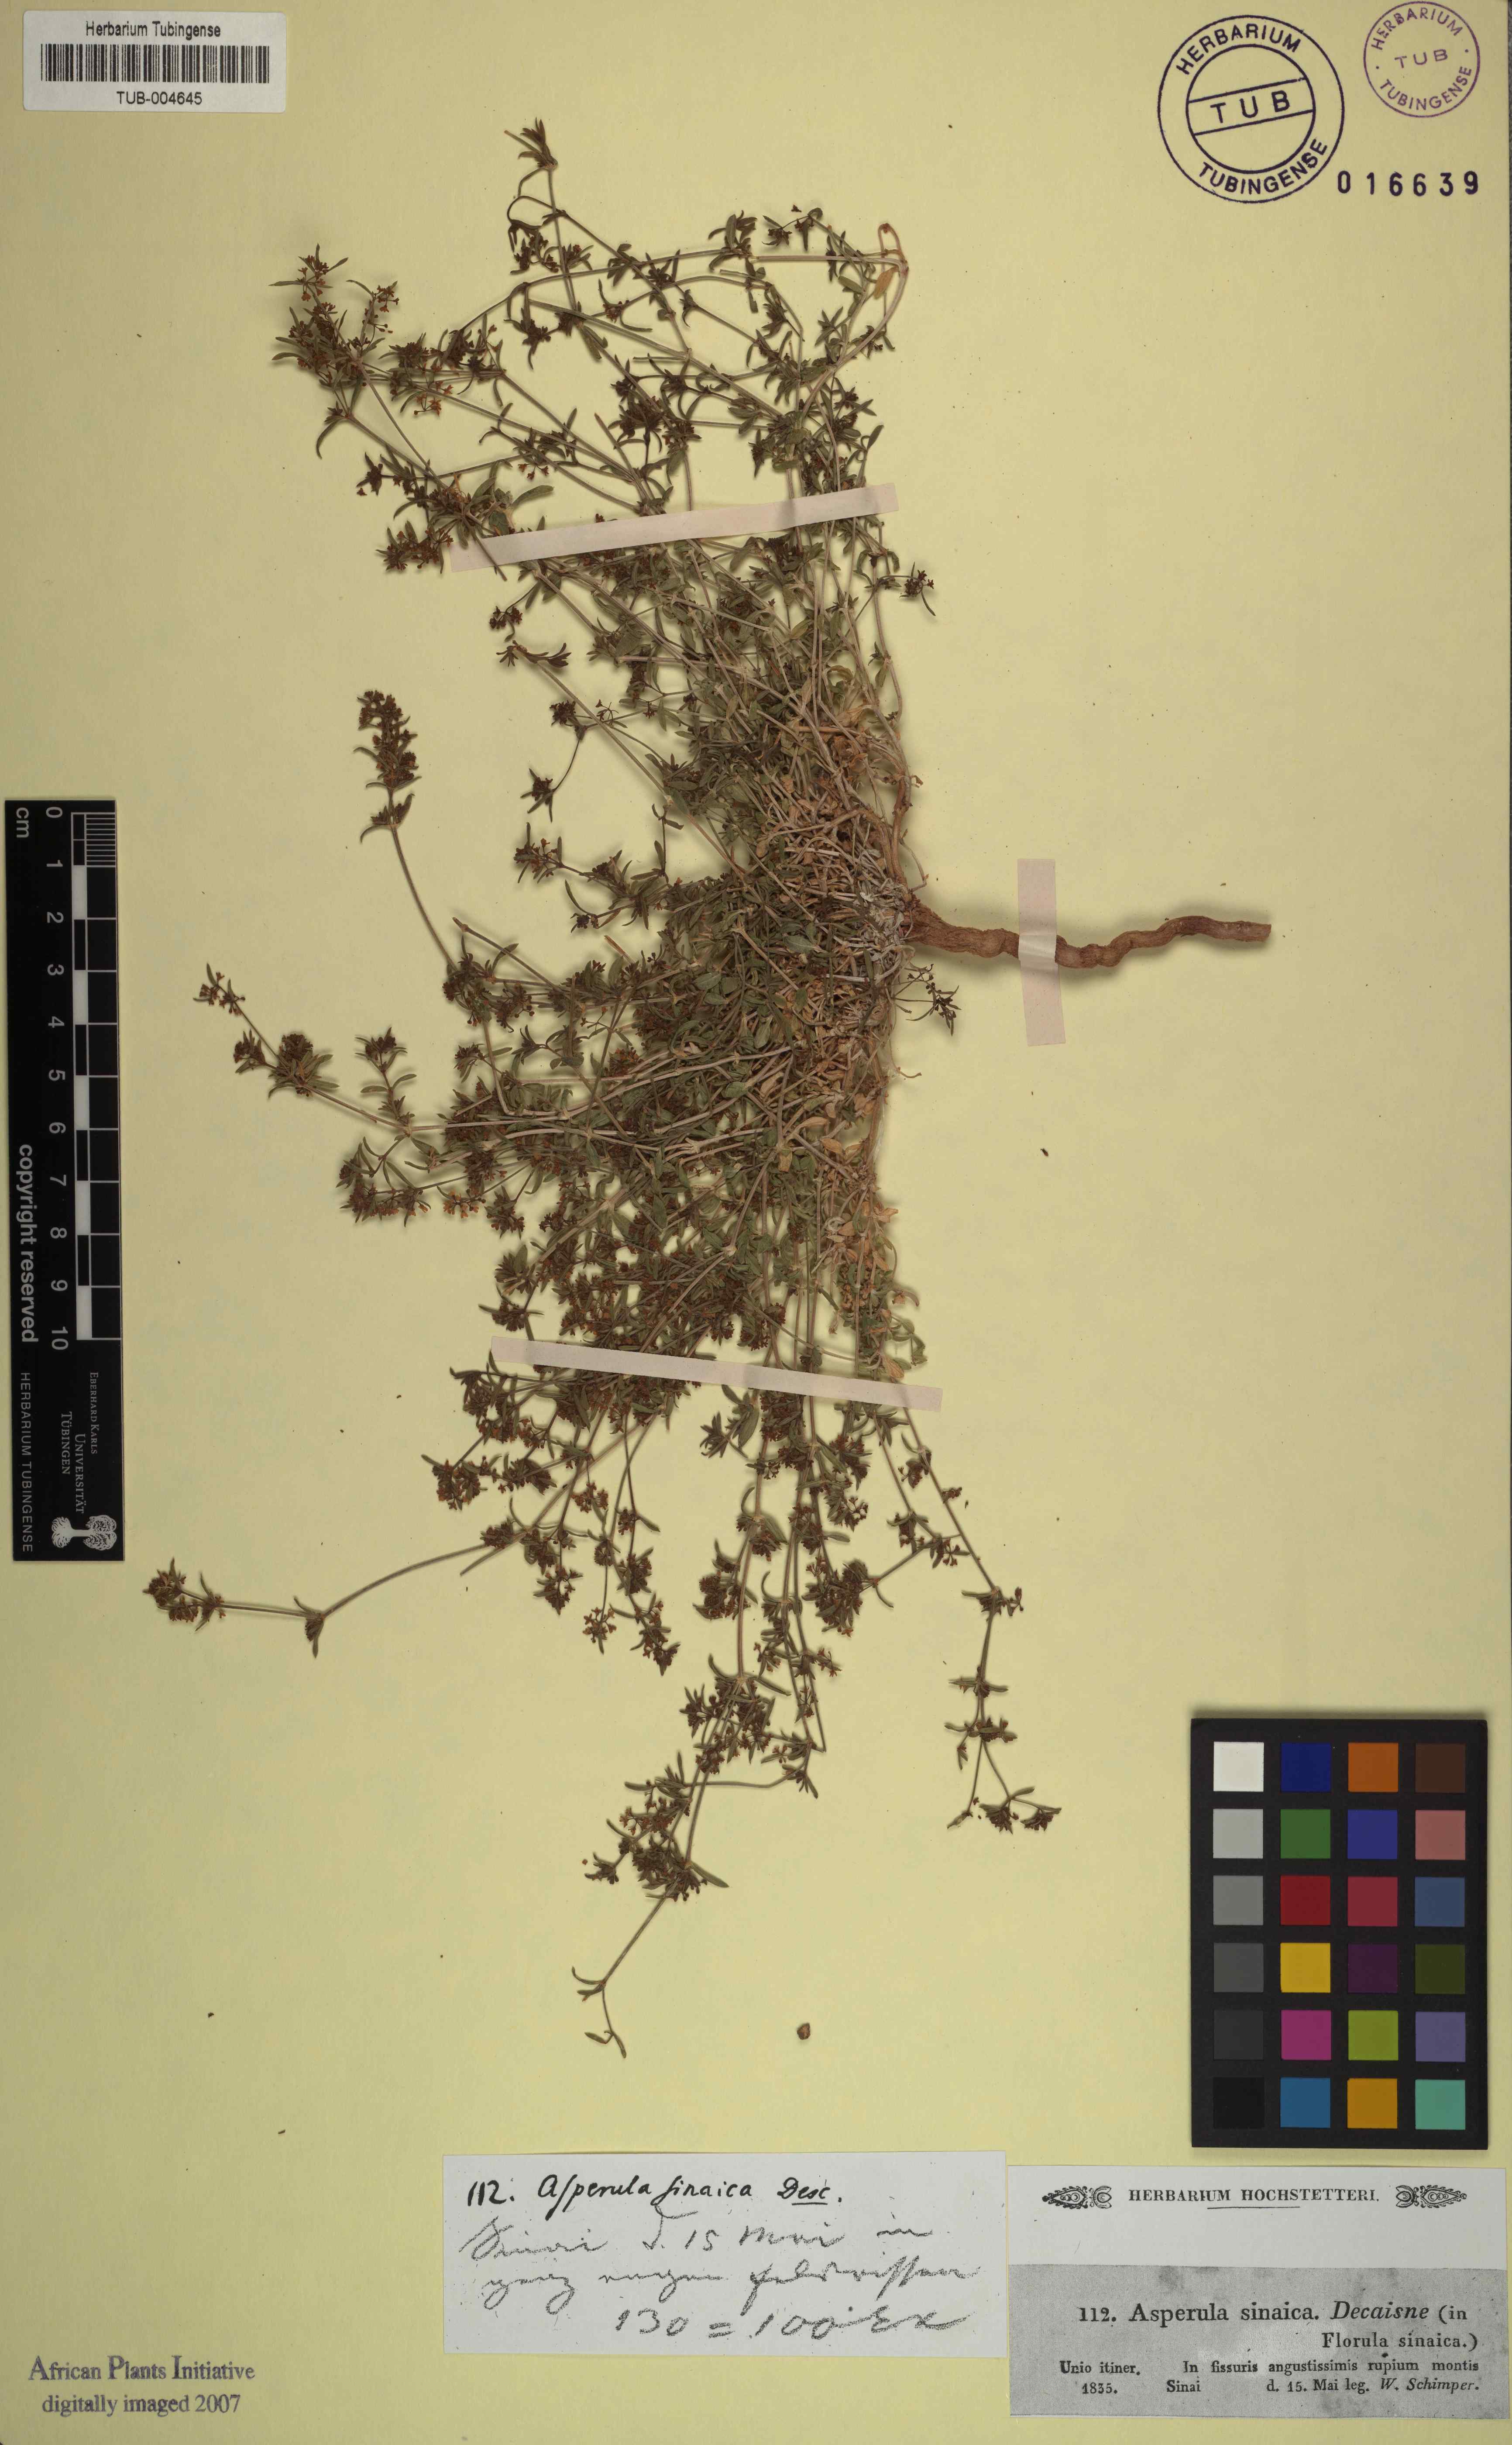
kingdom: Plantae
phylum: Tracheophyta
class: Magnoliopsida
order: Gentianales
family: Rubiaceae
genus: Galium
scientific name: Galium sinaicum
